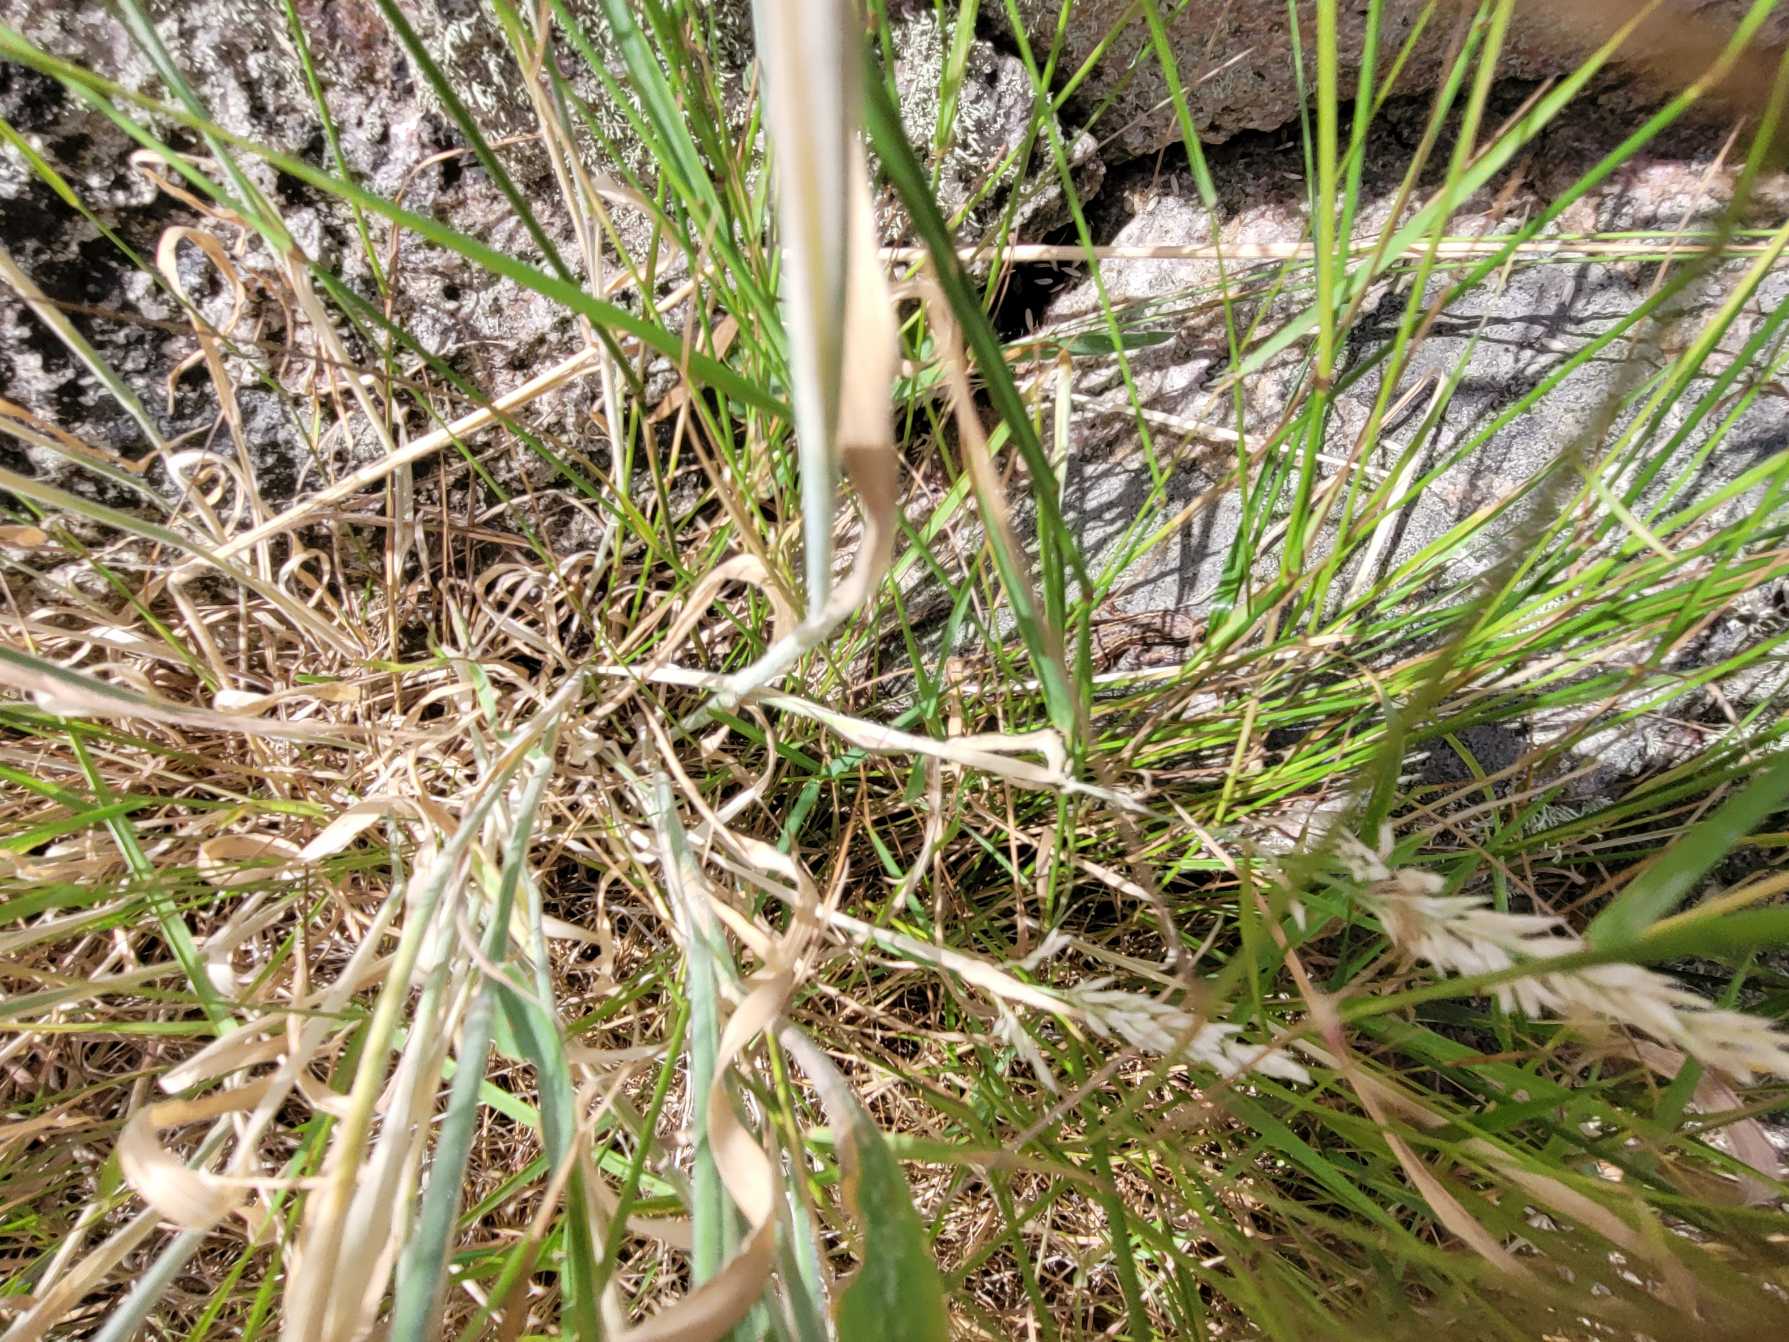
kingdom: Animalia
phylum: Chordata
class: Squamata
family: Lacertidae
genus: Zootoca
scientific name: Zootoca vivipara
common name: Skovfirben
